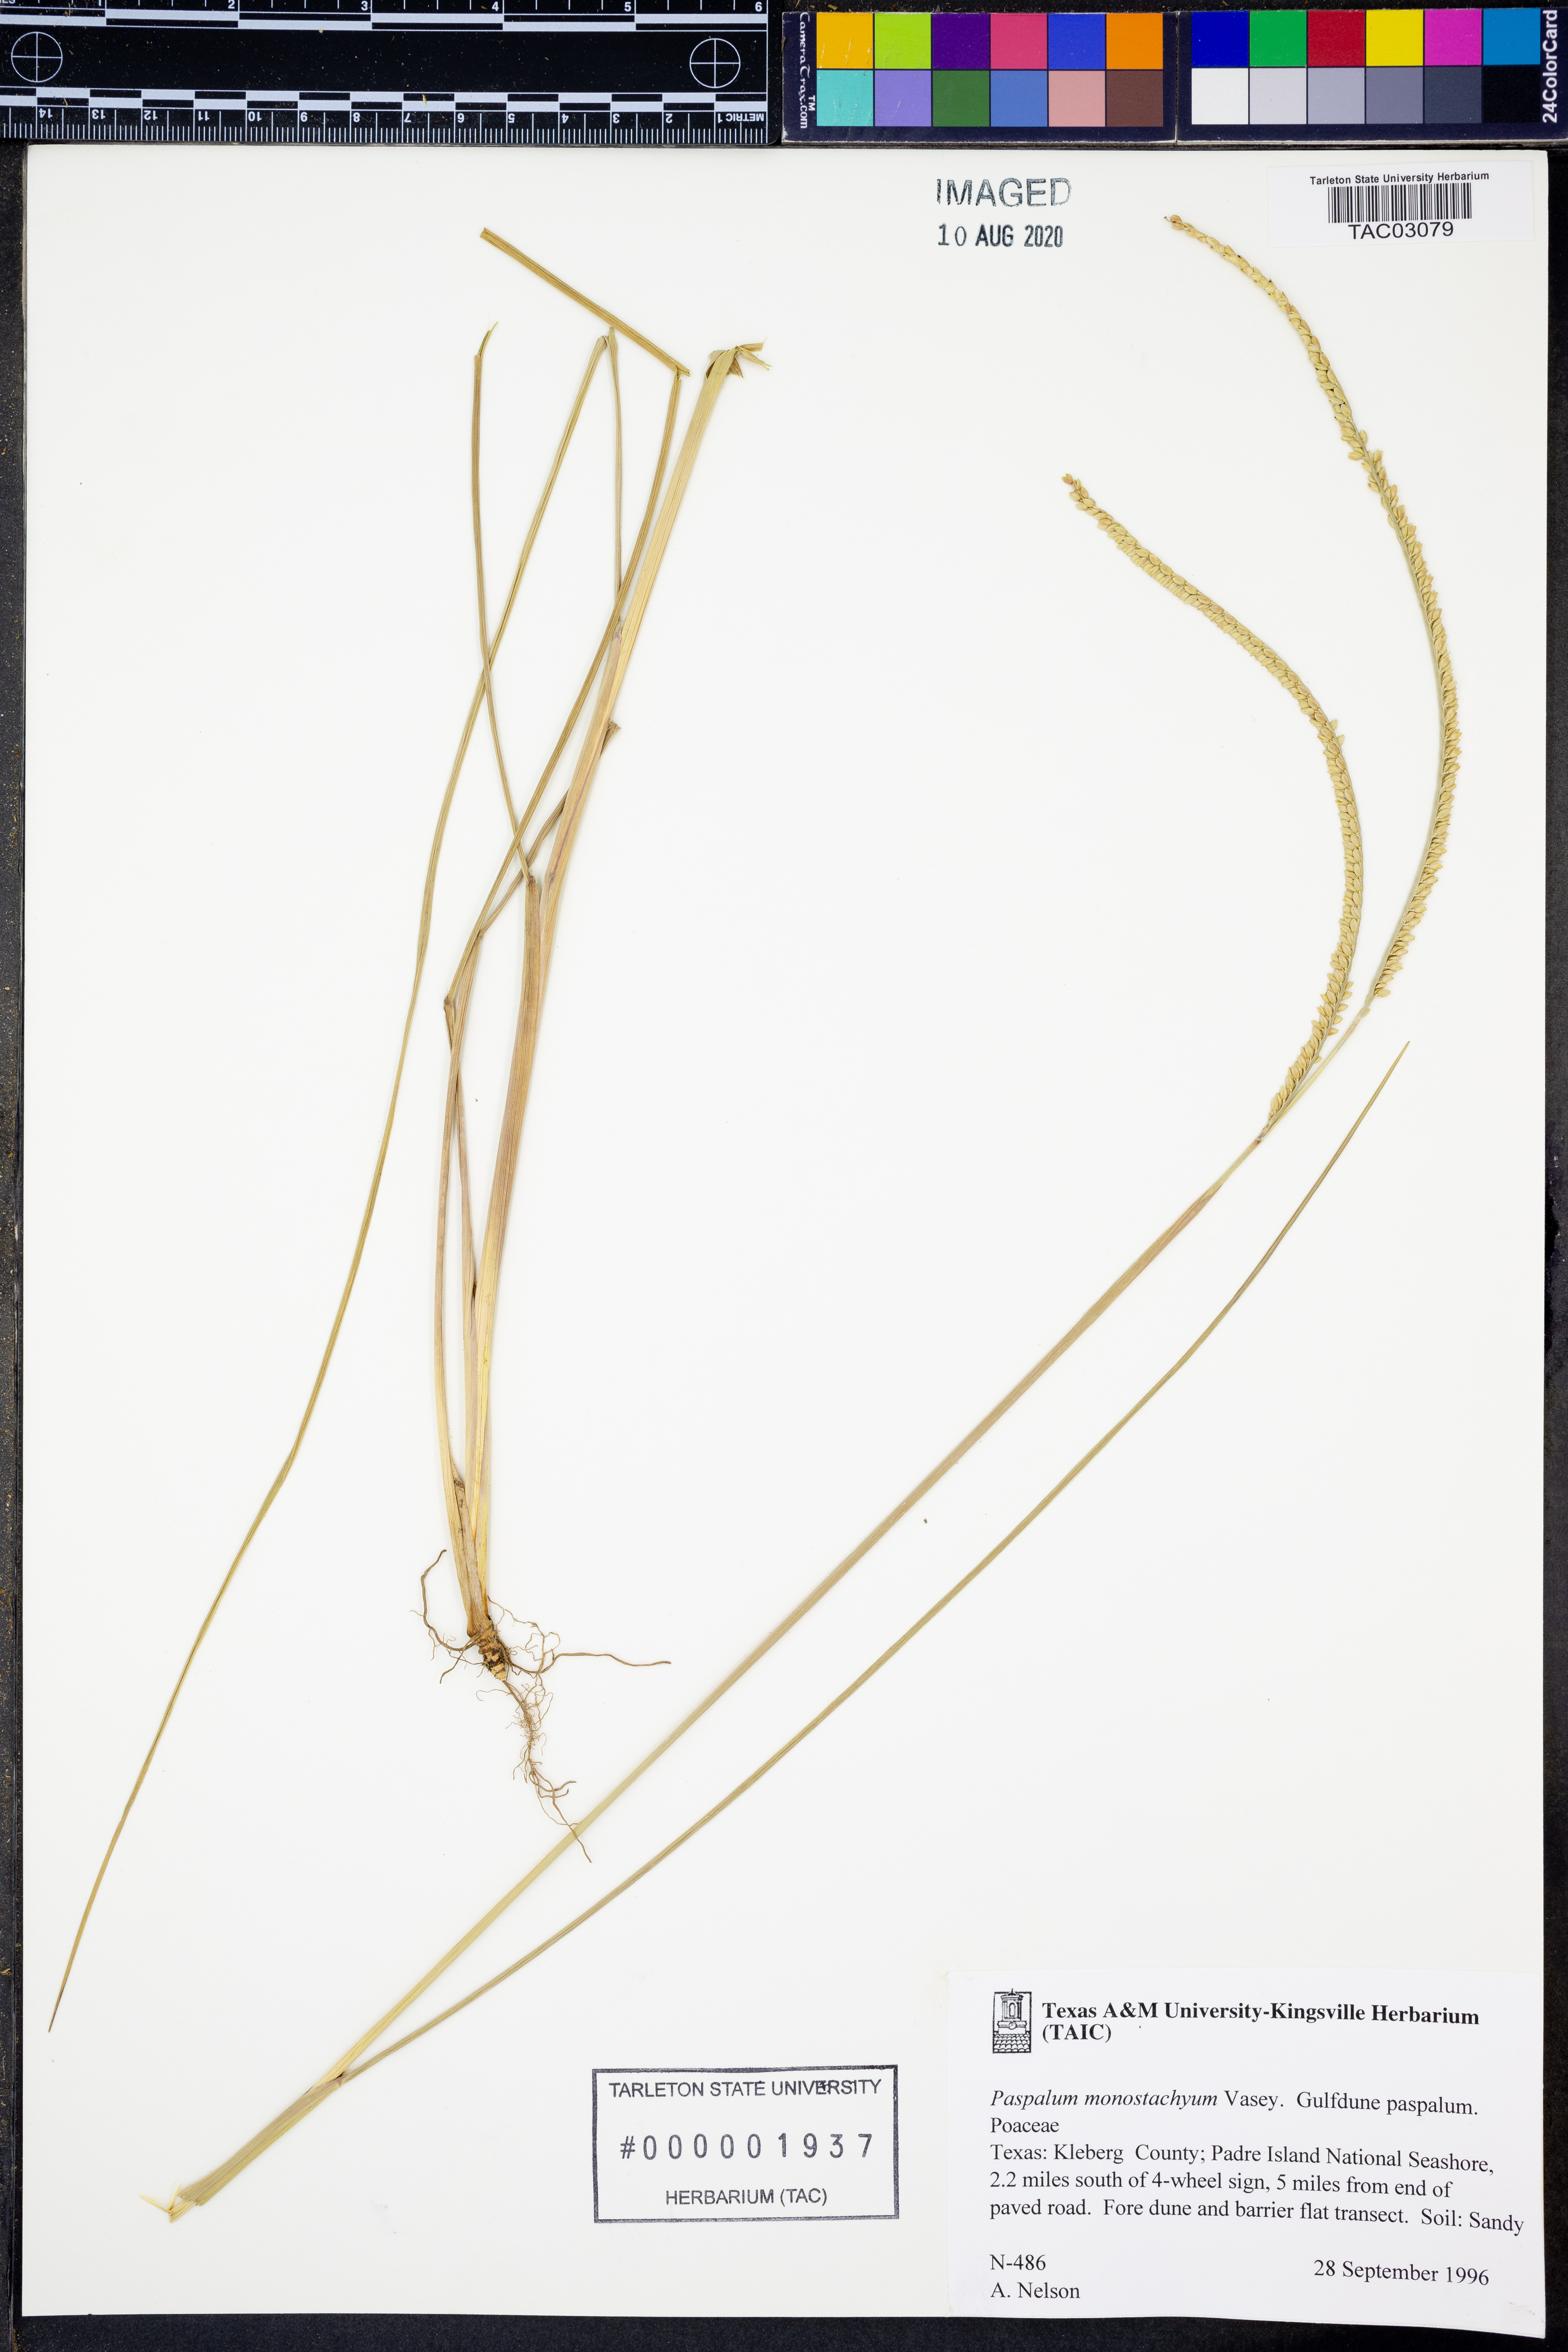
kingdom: Plantae
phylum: Tracheophyta
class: Liliopsida
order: Poales
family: Poaceae
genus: Paspalum
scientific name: Paspalum monostachyum
